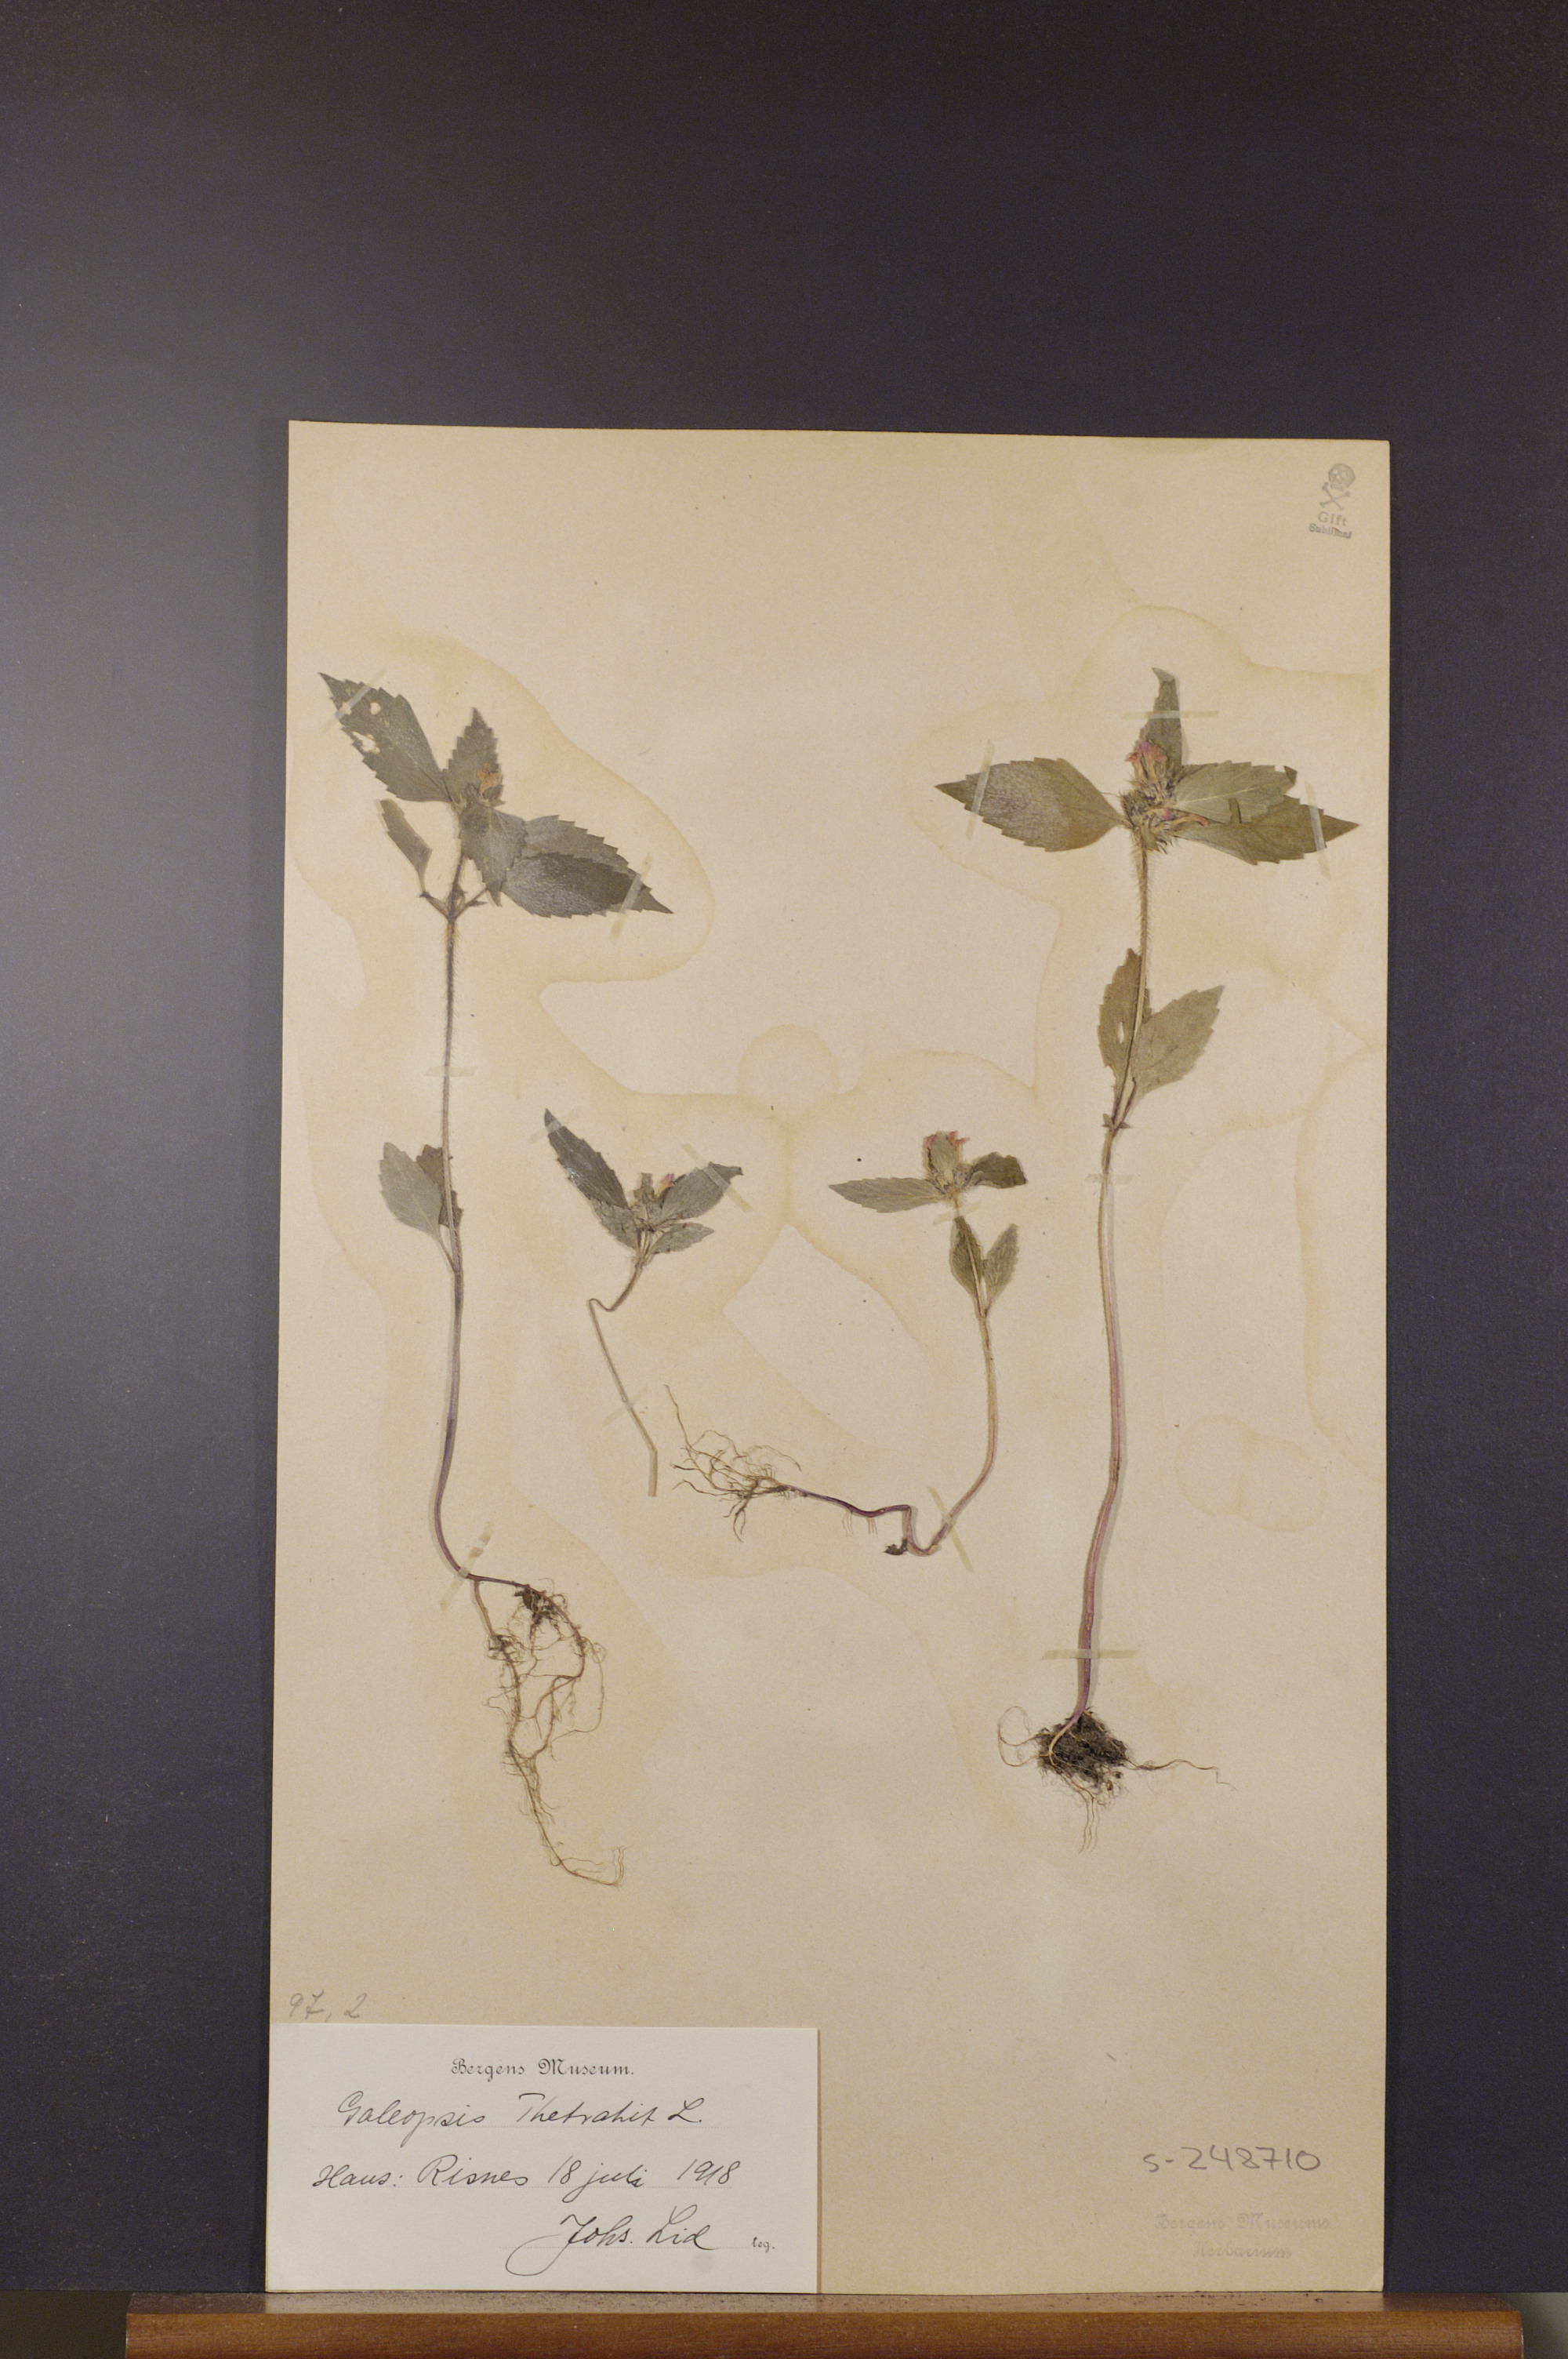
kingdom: Plantae
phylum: Tracheophyta
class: Magnoliopsida
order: Lamiales
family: Lamiaceae
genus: Galeopsis
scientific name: Galeopsis tetrahit
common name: Common hemp-nettle
